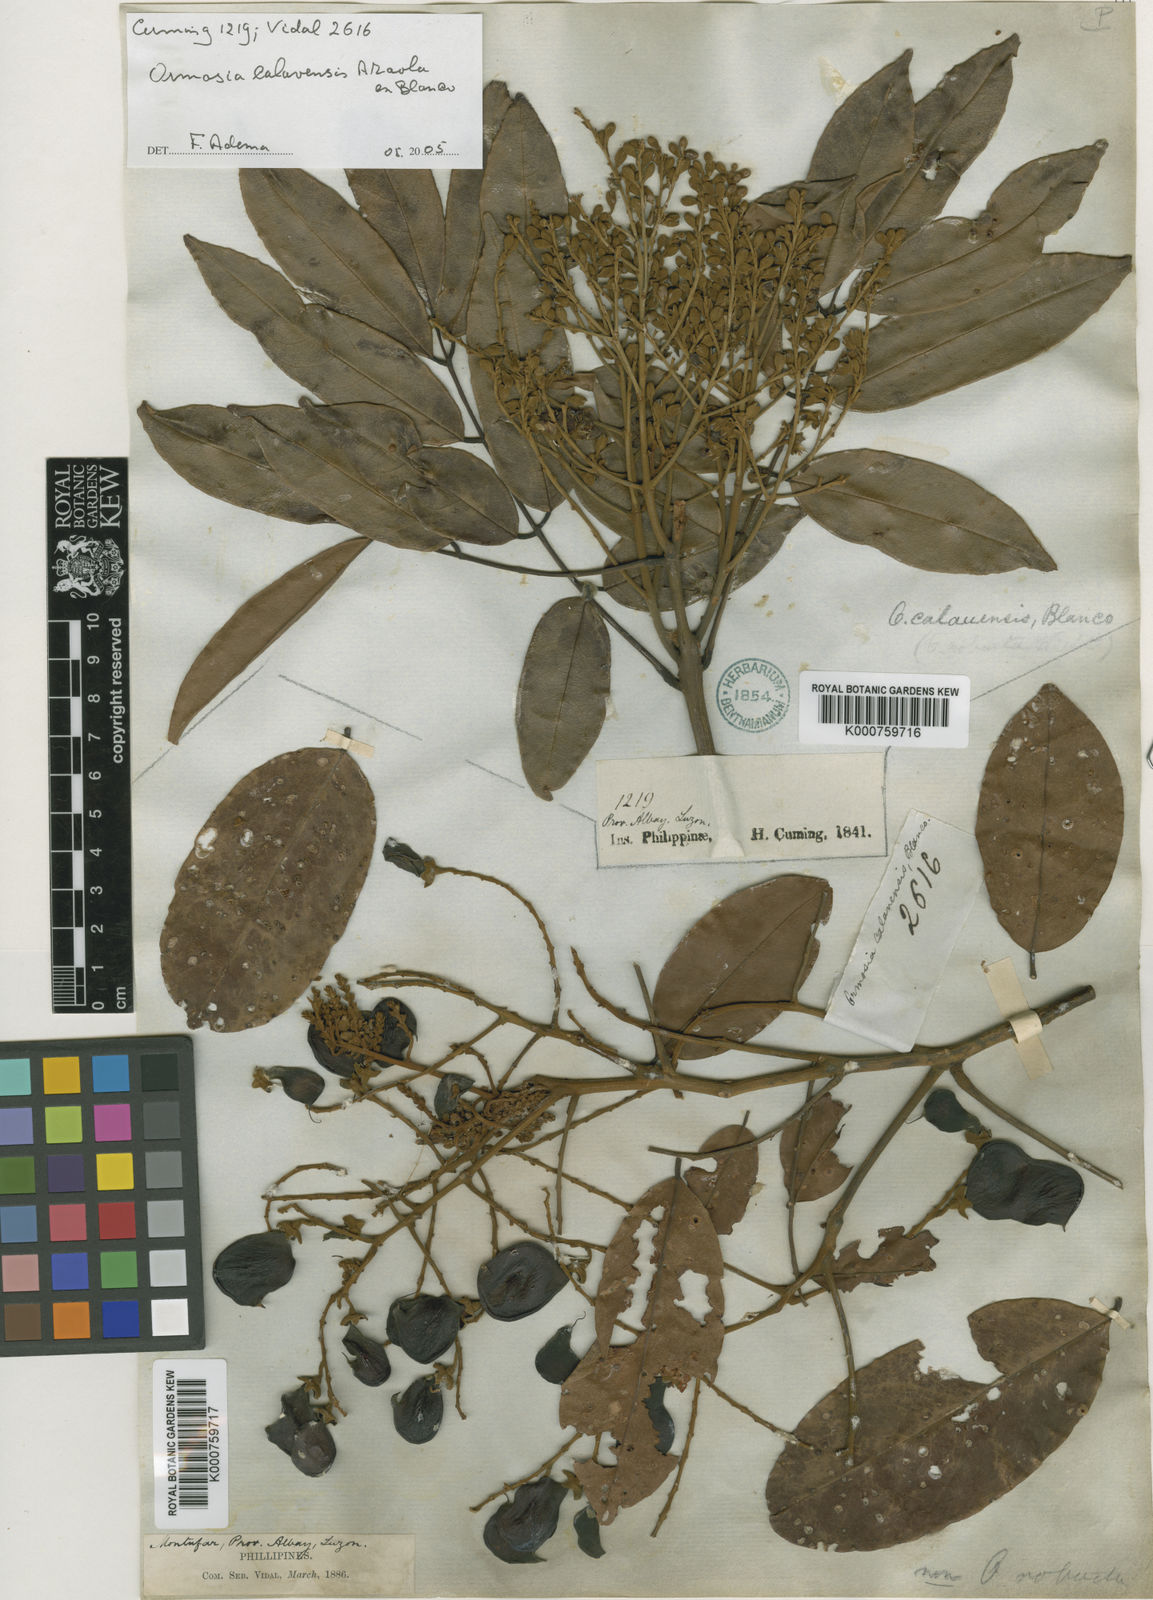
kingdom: Plantae
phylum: Tracheophyta
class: Magnoliopsida
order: Fabales
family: Fabaceae
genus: Ormosia
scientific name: Ormosia calavensis
